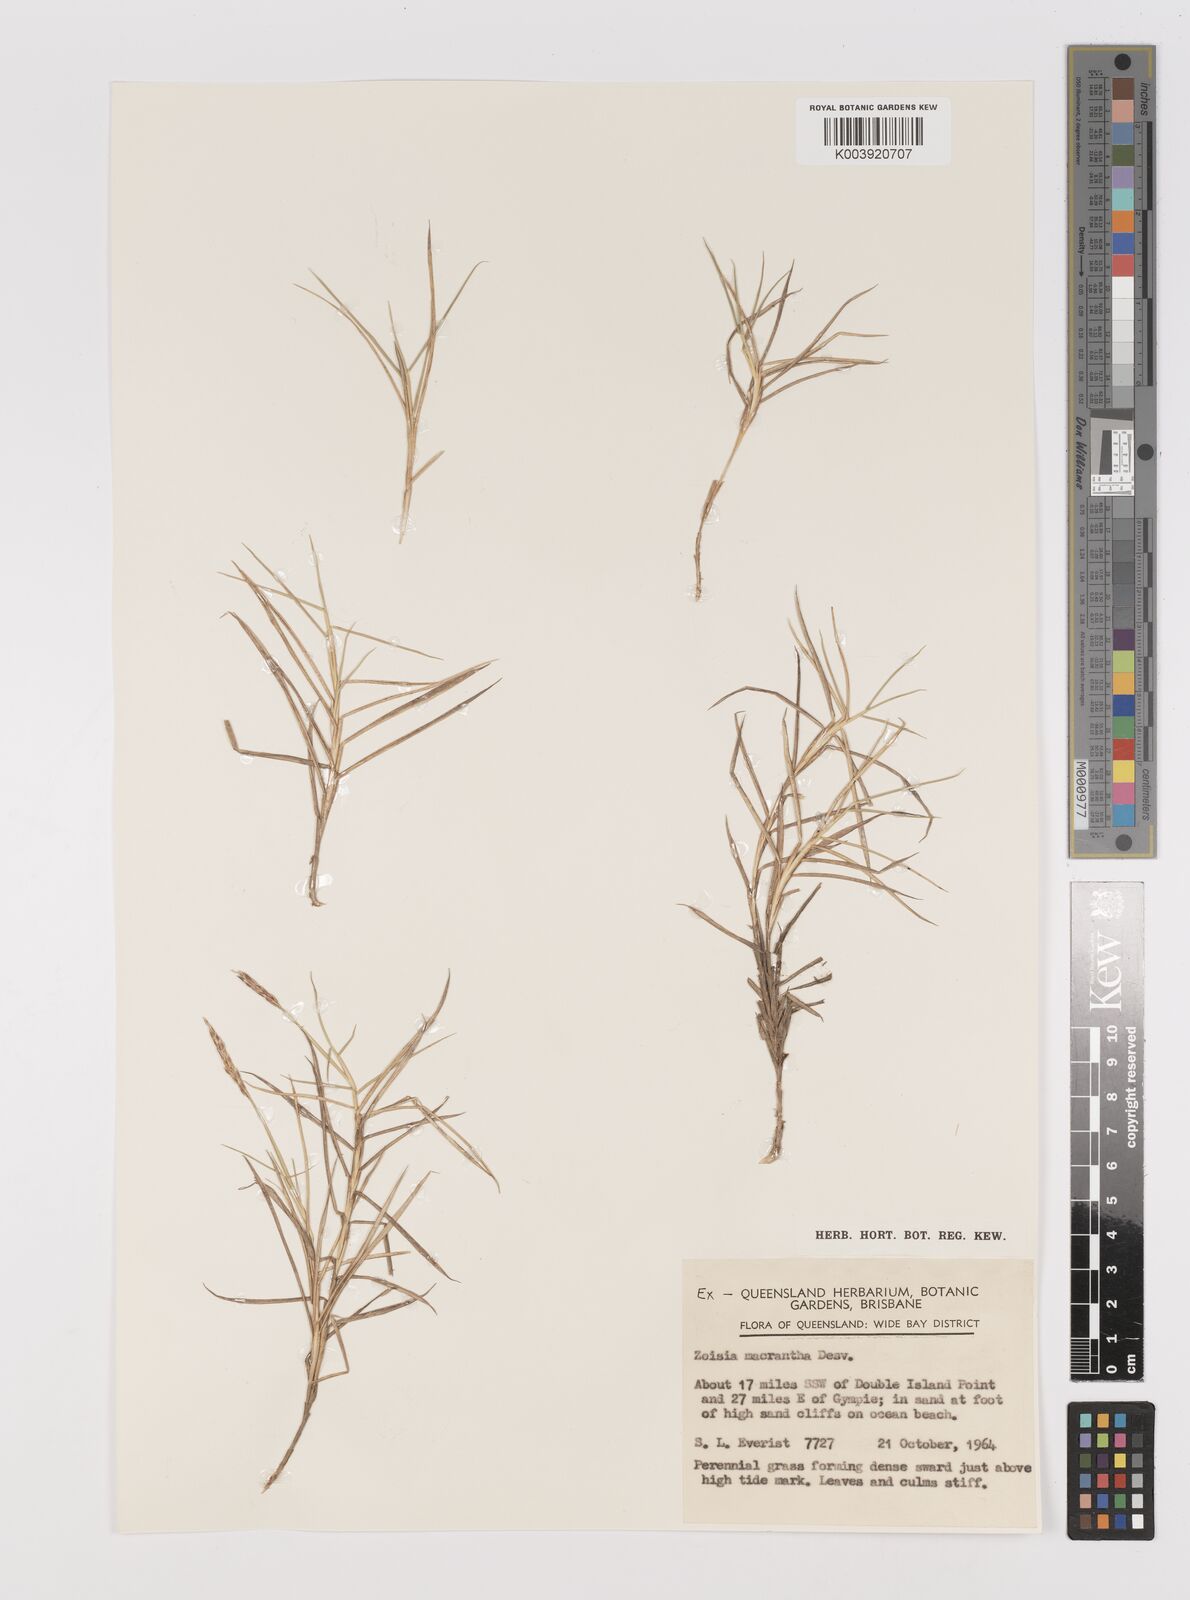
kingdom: Plantae
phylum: Tracheophyta
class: Liliopsida
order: Poales
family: Poaceae
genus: Zoysia
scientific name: Zoysia macrantha
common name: Korean lawn grass
